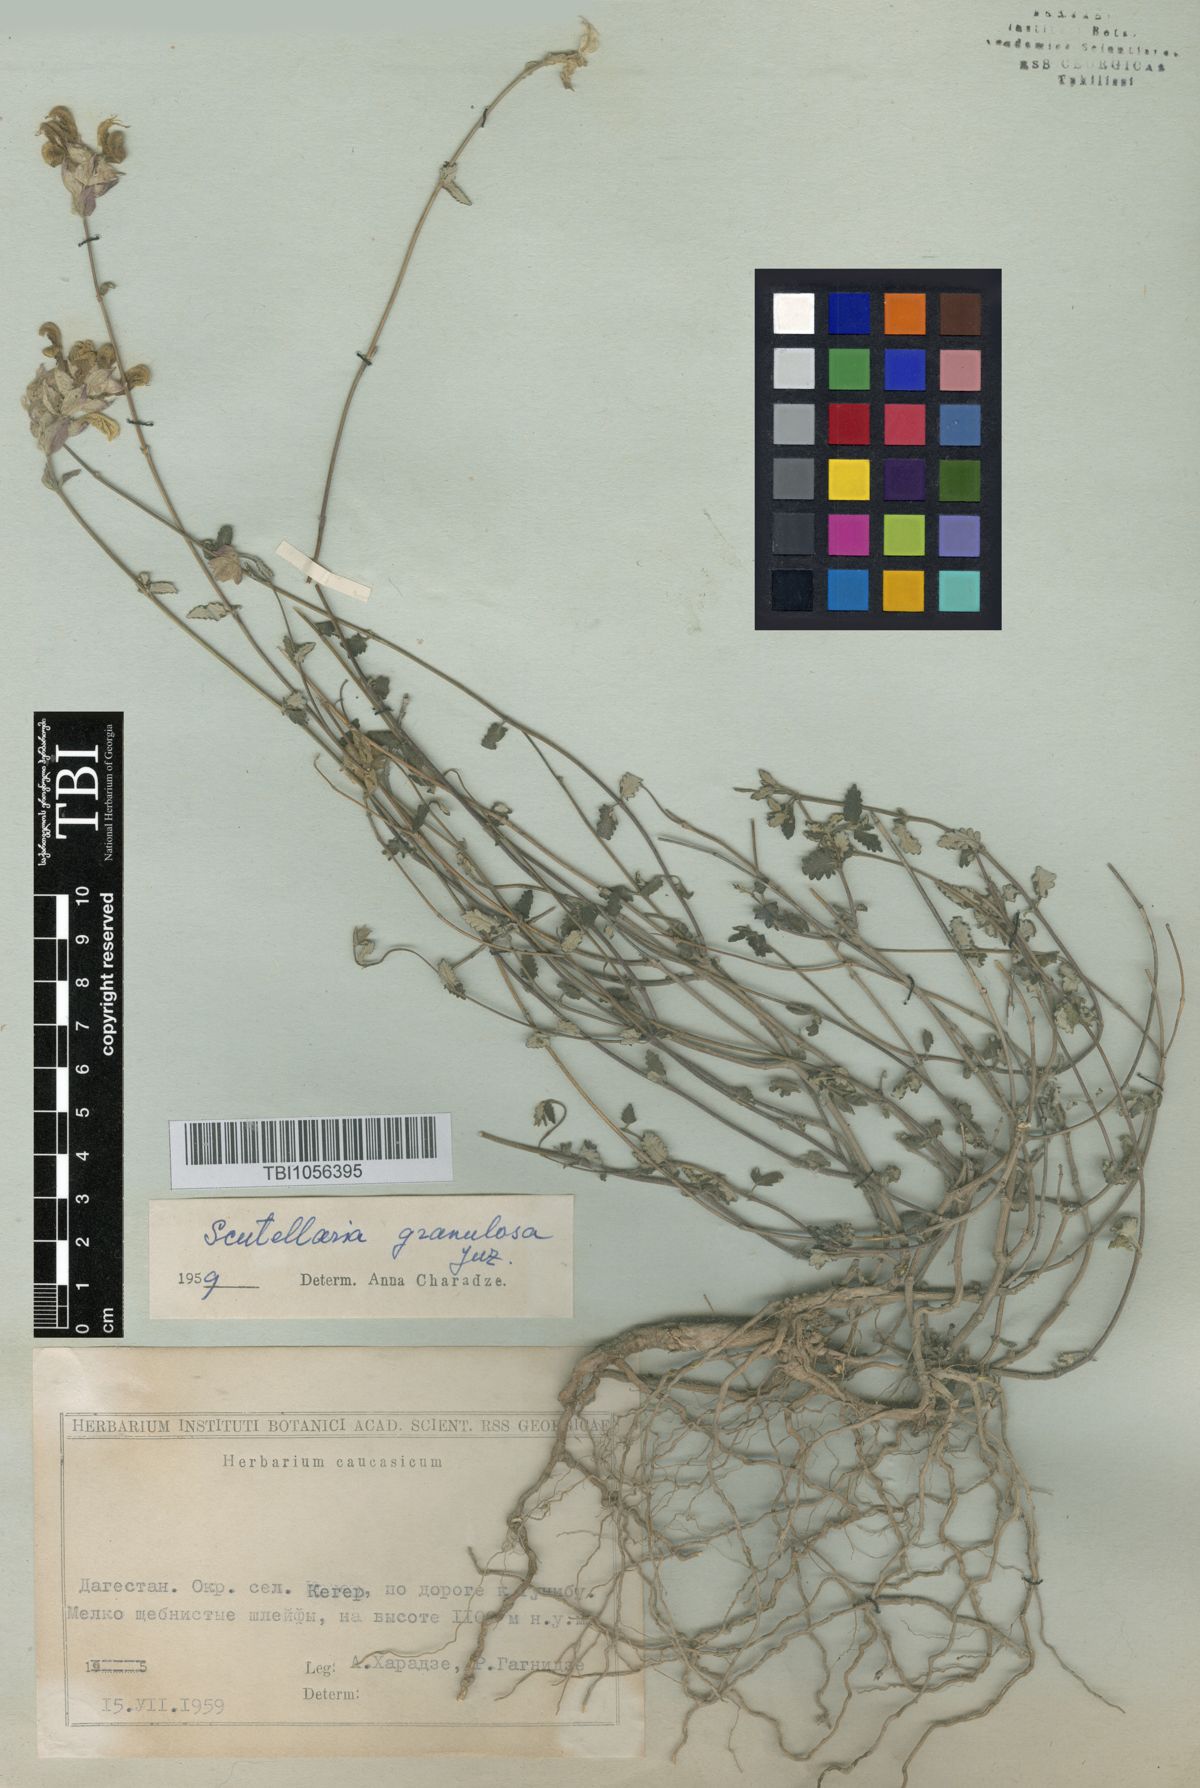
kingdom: Plantae
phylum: Tracheophyta
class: Magnoliopsida
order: Lamiales
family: Lamiaceae
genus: Scutellaria
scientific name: Scutellaria granulosa
